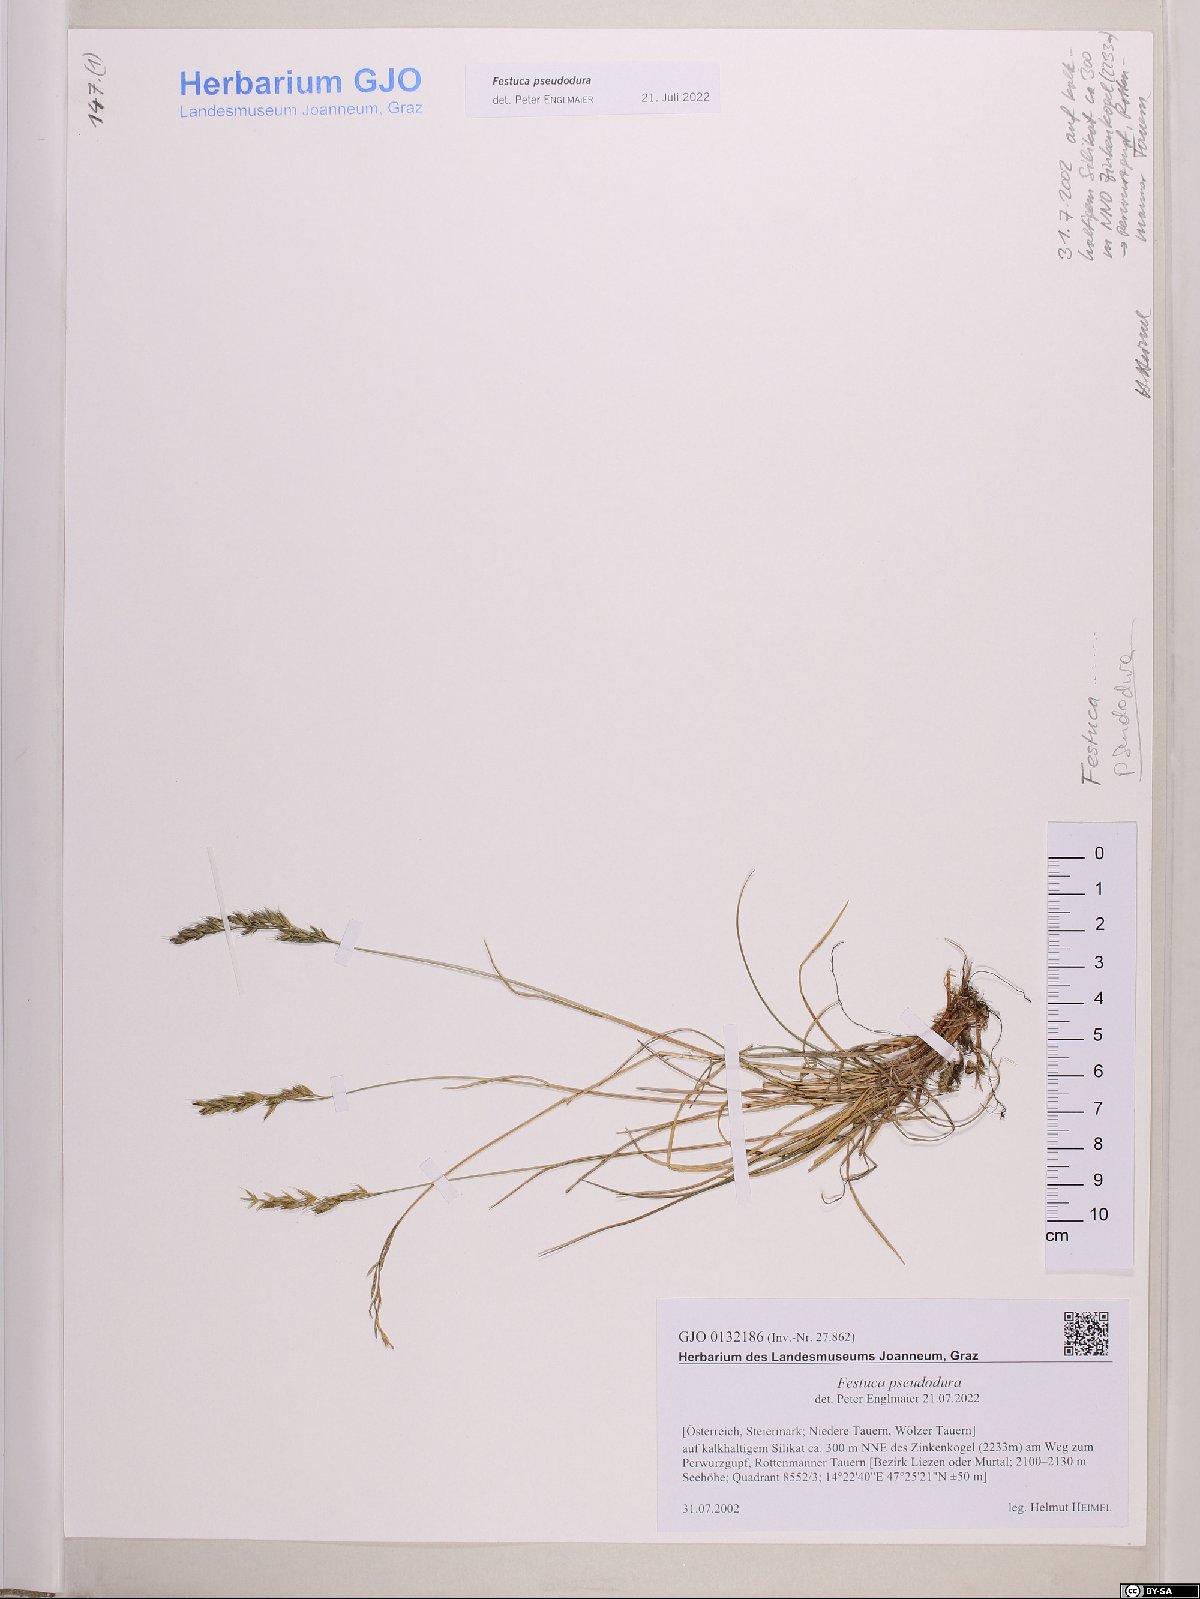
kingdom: Plantae
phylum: Tracheophyta
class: Liliopsida
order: Poales
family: Poaceae
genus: Festuca
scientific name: Festuca pseudodura
